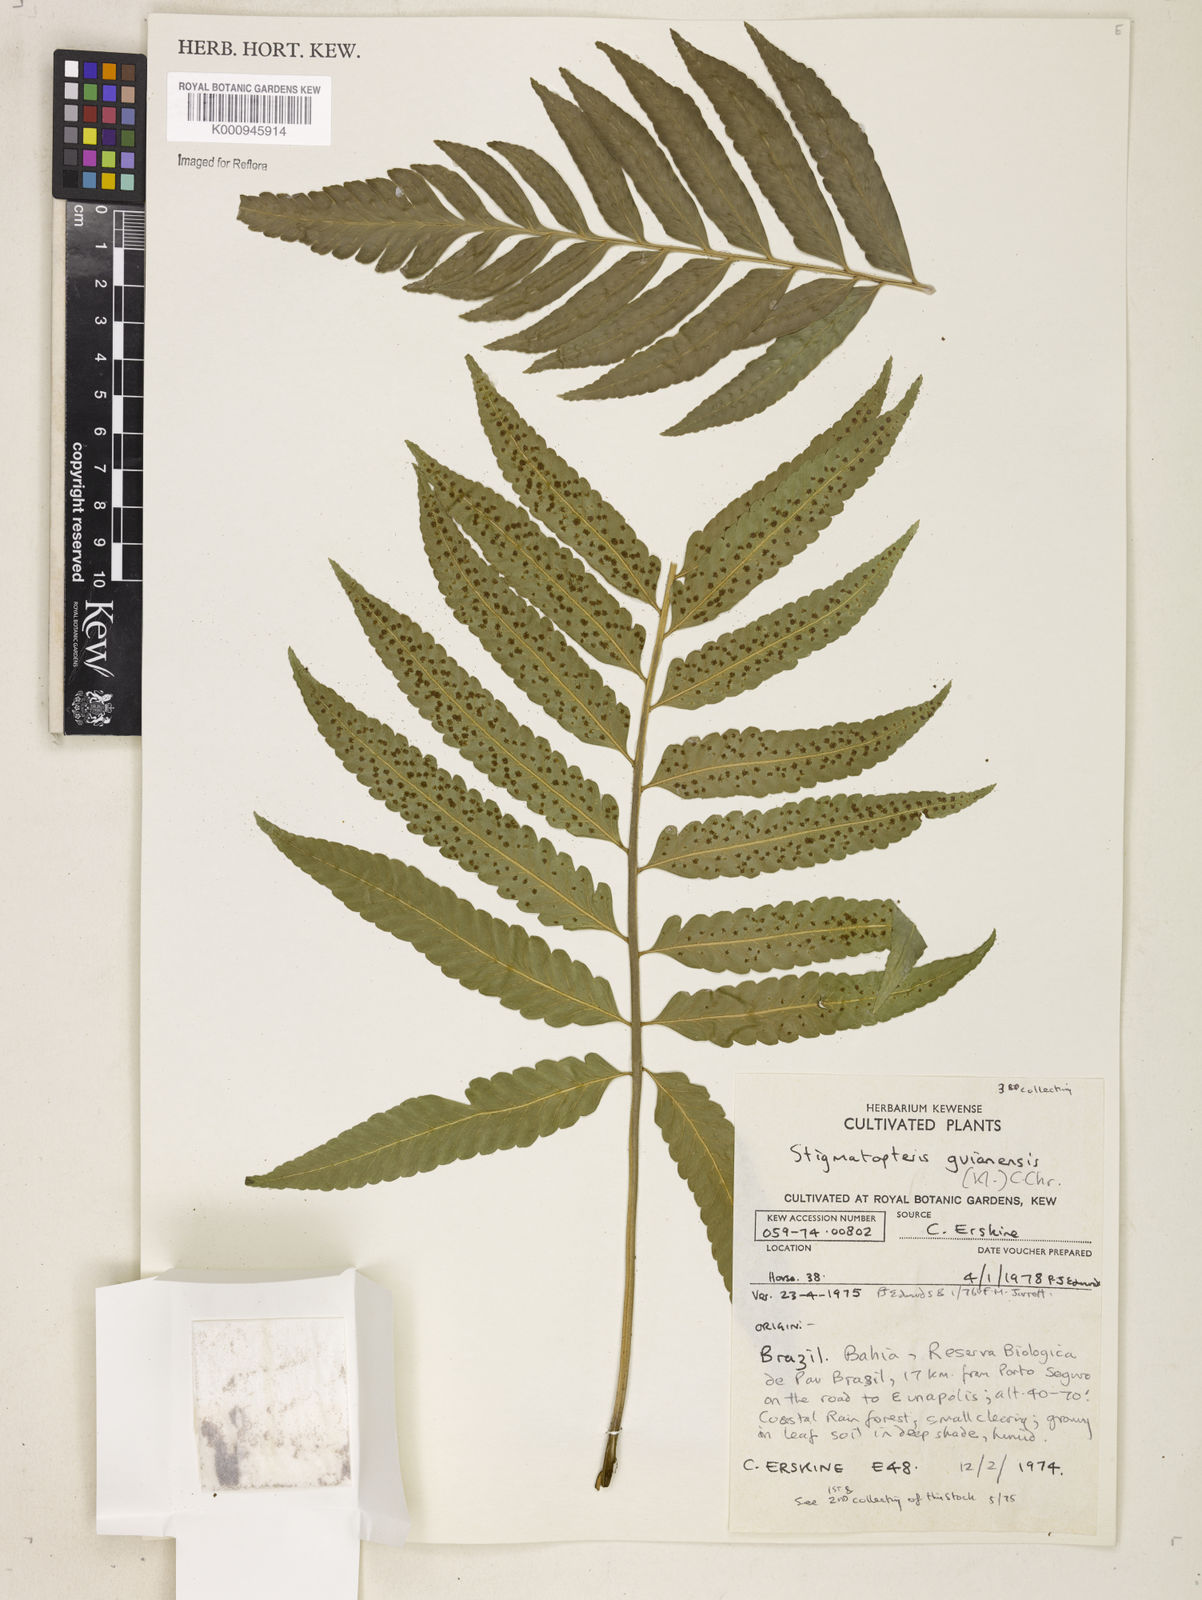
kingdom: Plantae
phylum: Tracheophyta
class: Polypodiopsida
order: Polypodiales
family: Dryopteridaceae
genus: Cyclodium
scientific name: Cyclodium
